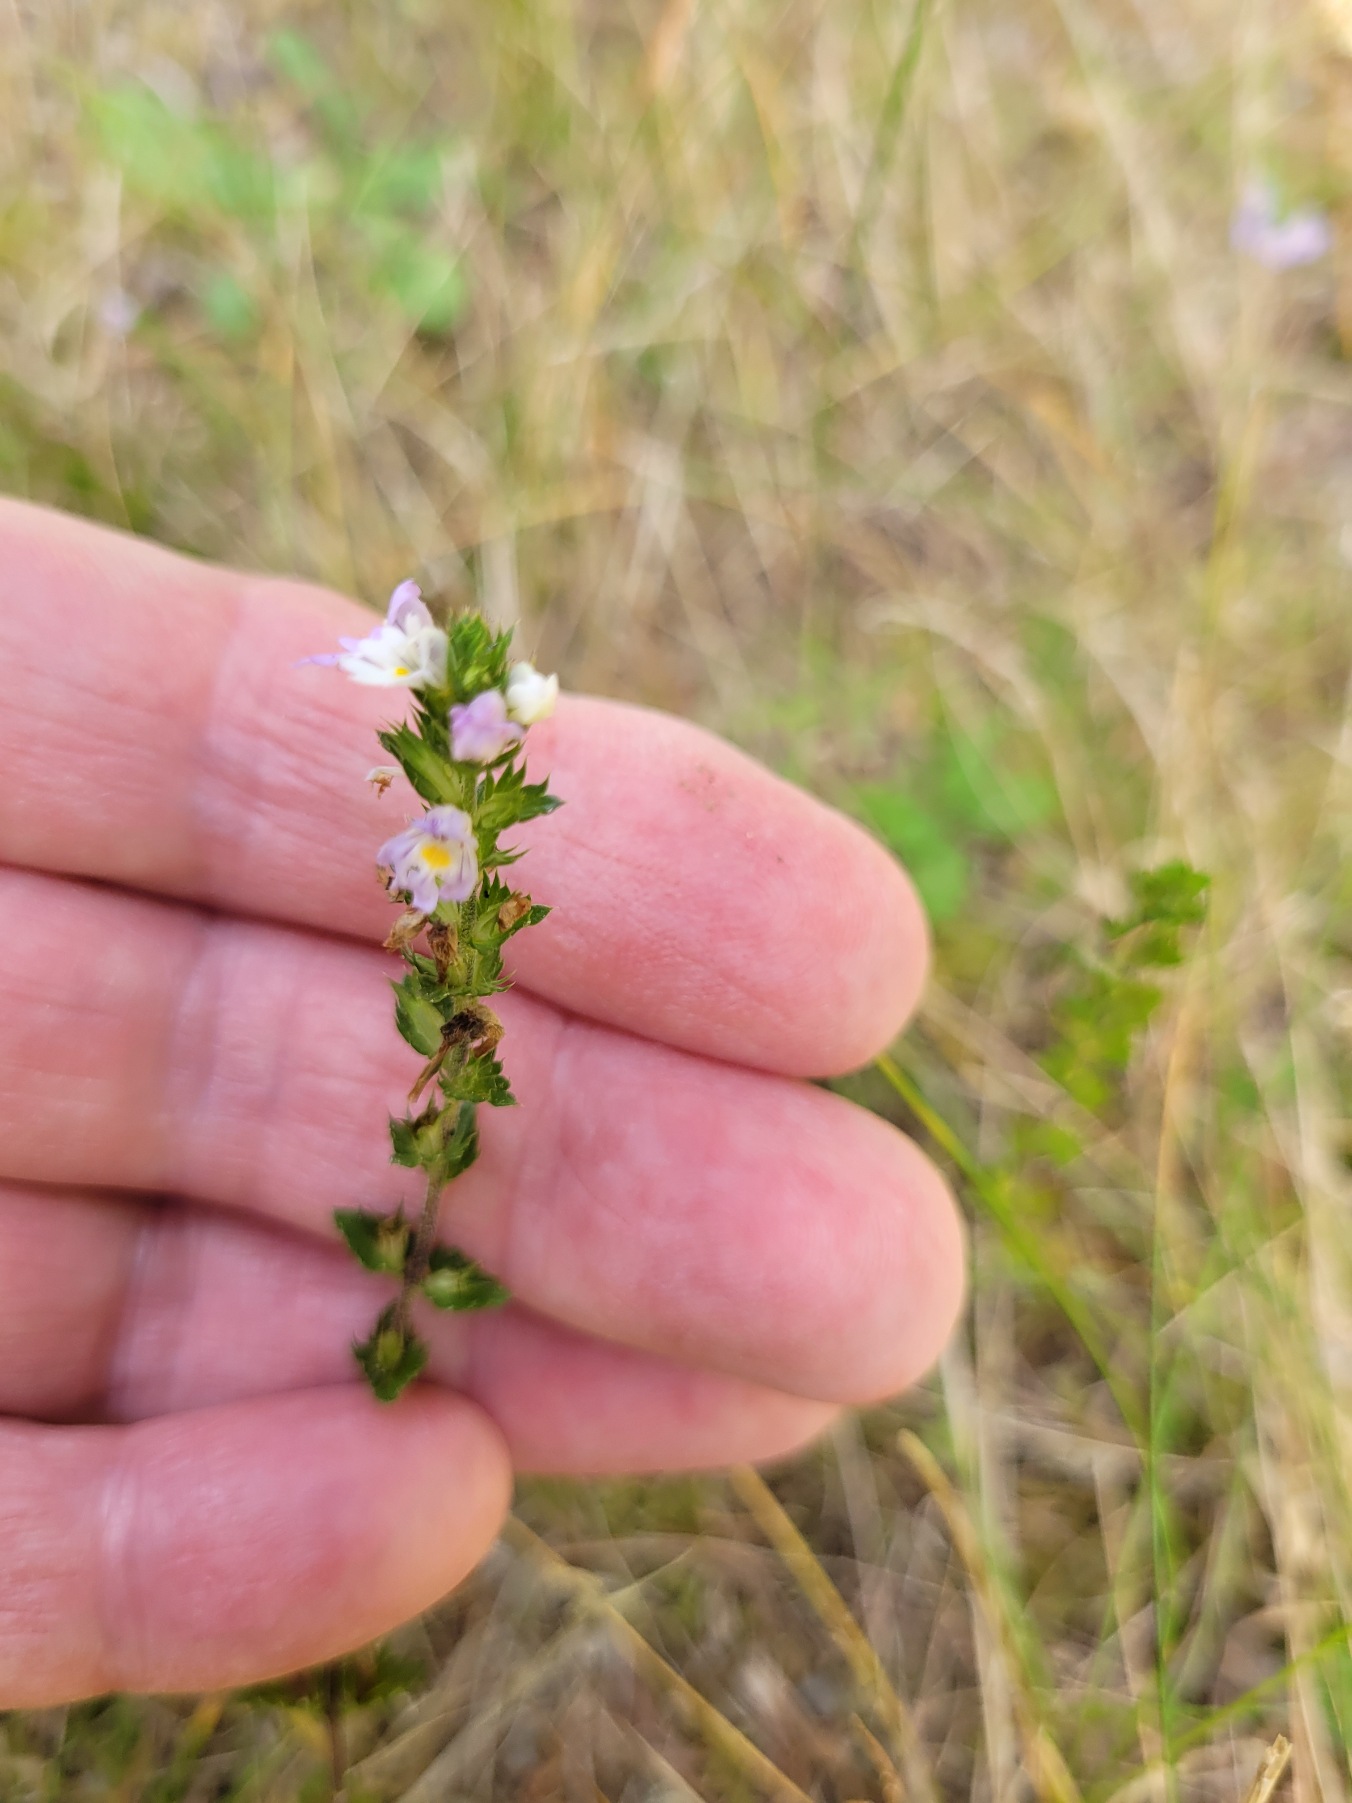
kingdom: Plantae
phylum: Tracheophyta
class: Magnoliopsida
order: Lamiales
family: Orobanchaceae
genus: Euphrasia
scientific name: Euphrasia stricta
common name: Spids øjentrøst
